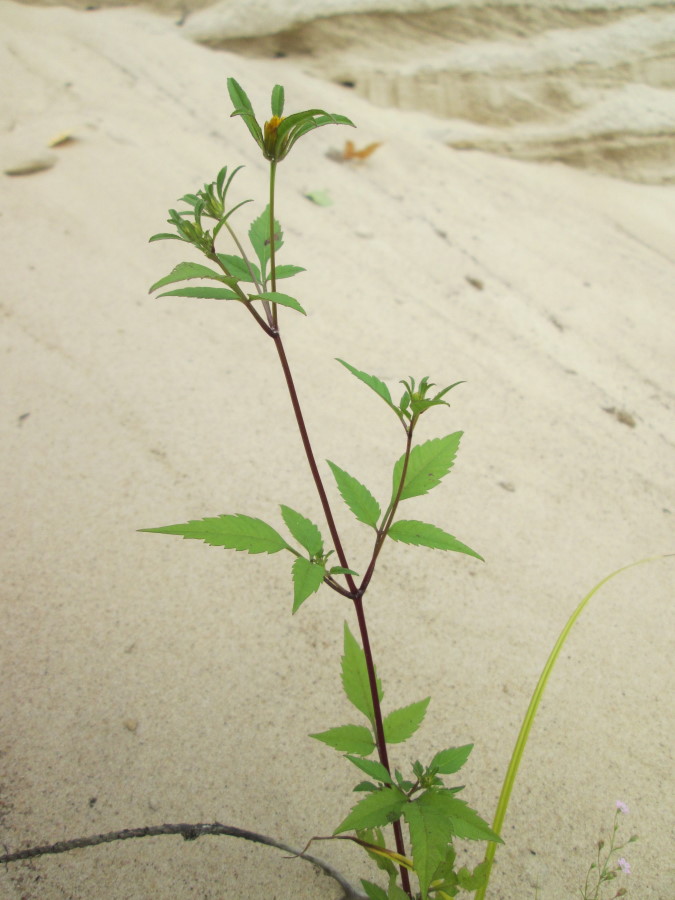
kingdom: Plantae
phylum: Tracheophyta
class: Magnoliopsida
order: Asterales
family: Asteraceae
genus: Bidens
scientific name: Bidens frondosa
